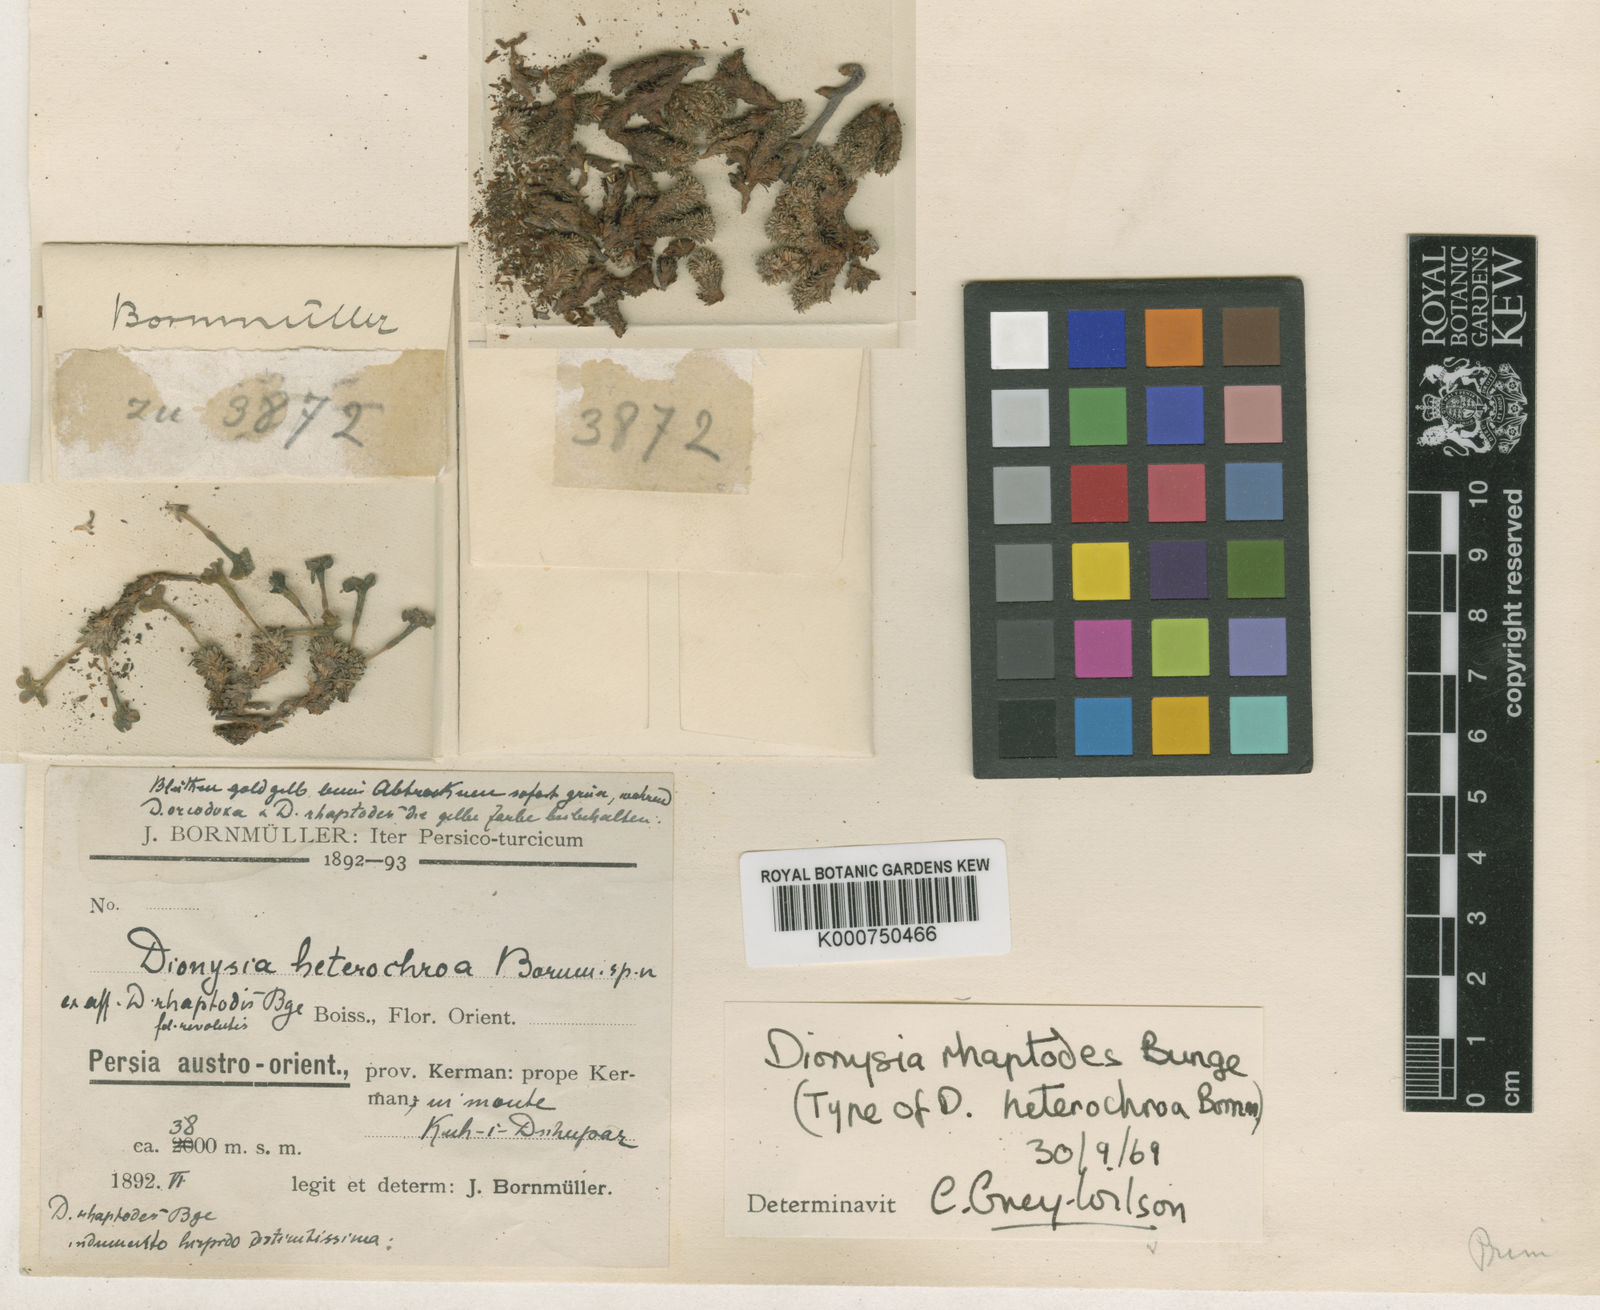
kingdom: Plantae
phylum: Tracheophyta
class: Magnoliopsida
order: Ericales
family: Primulaceae
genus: Dionysia
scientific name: Dionysia rhaptodes
